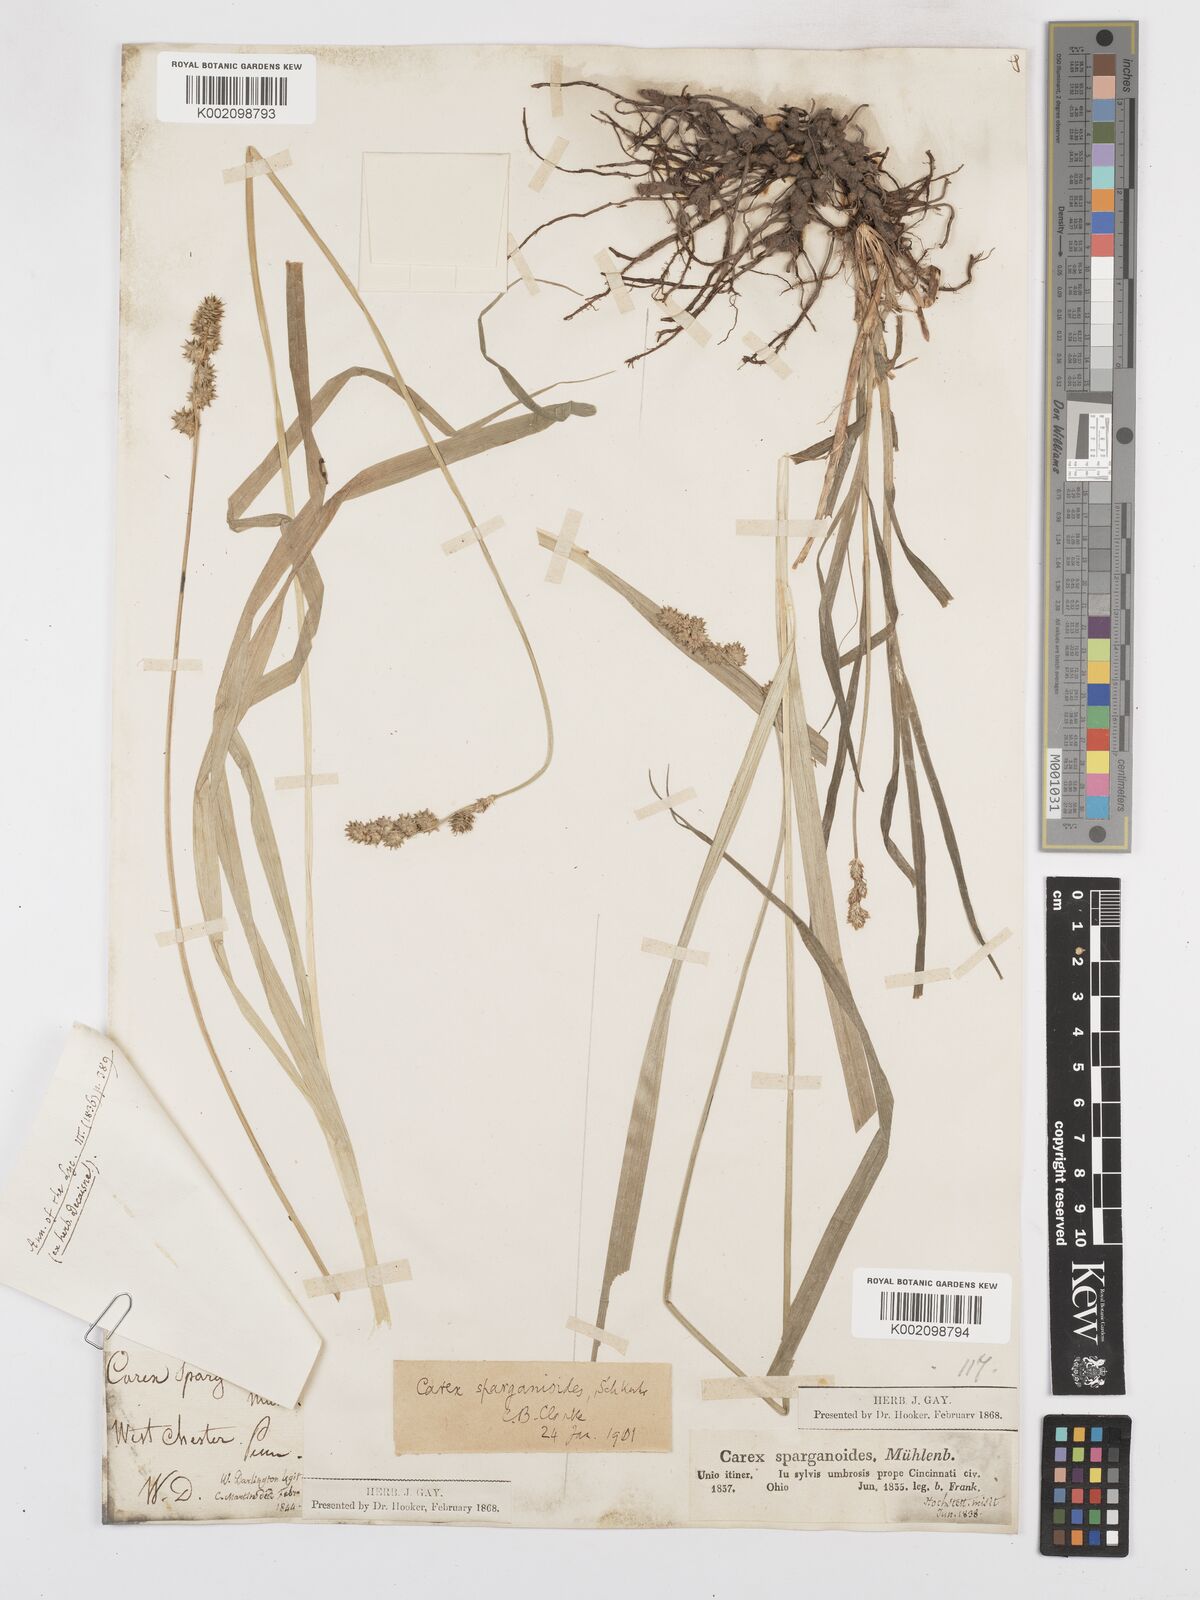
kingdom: Plantae
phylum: Tracheophyta
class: Liliopsida
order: Poales
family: Cyperaceae
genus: Carex
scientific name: Carex sparganioides
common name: Burreed sedge
